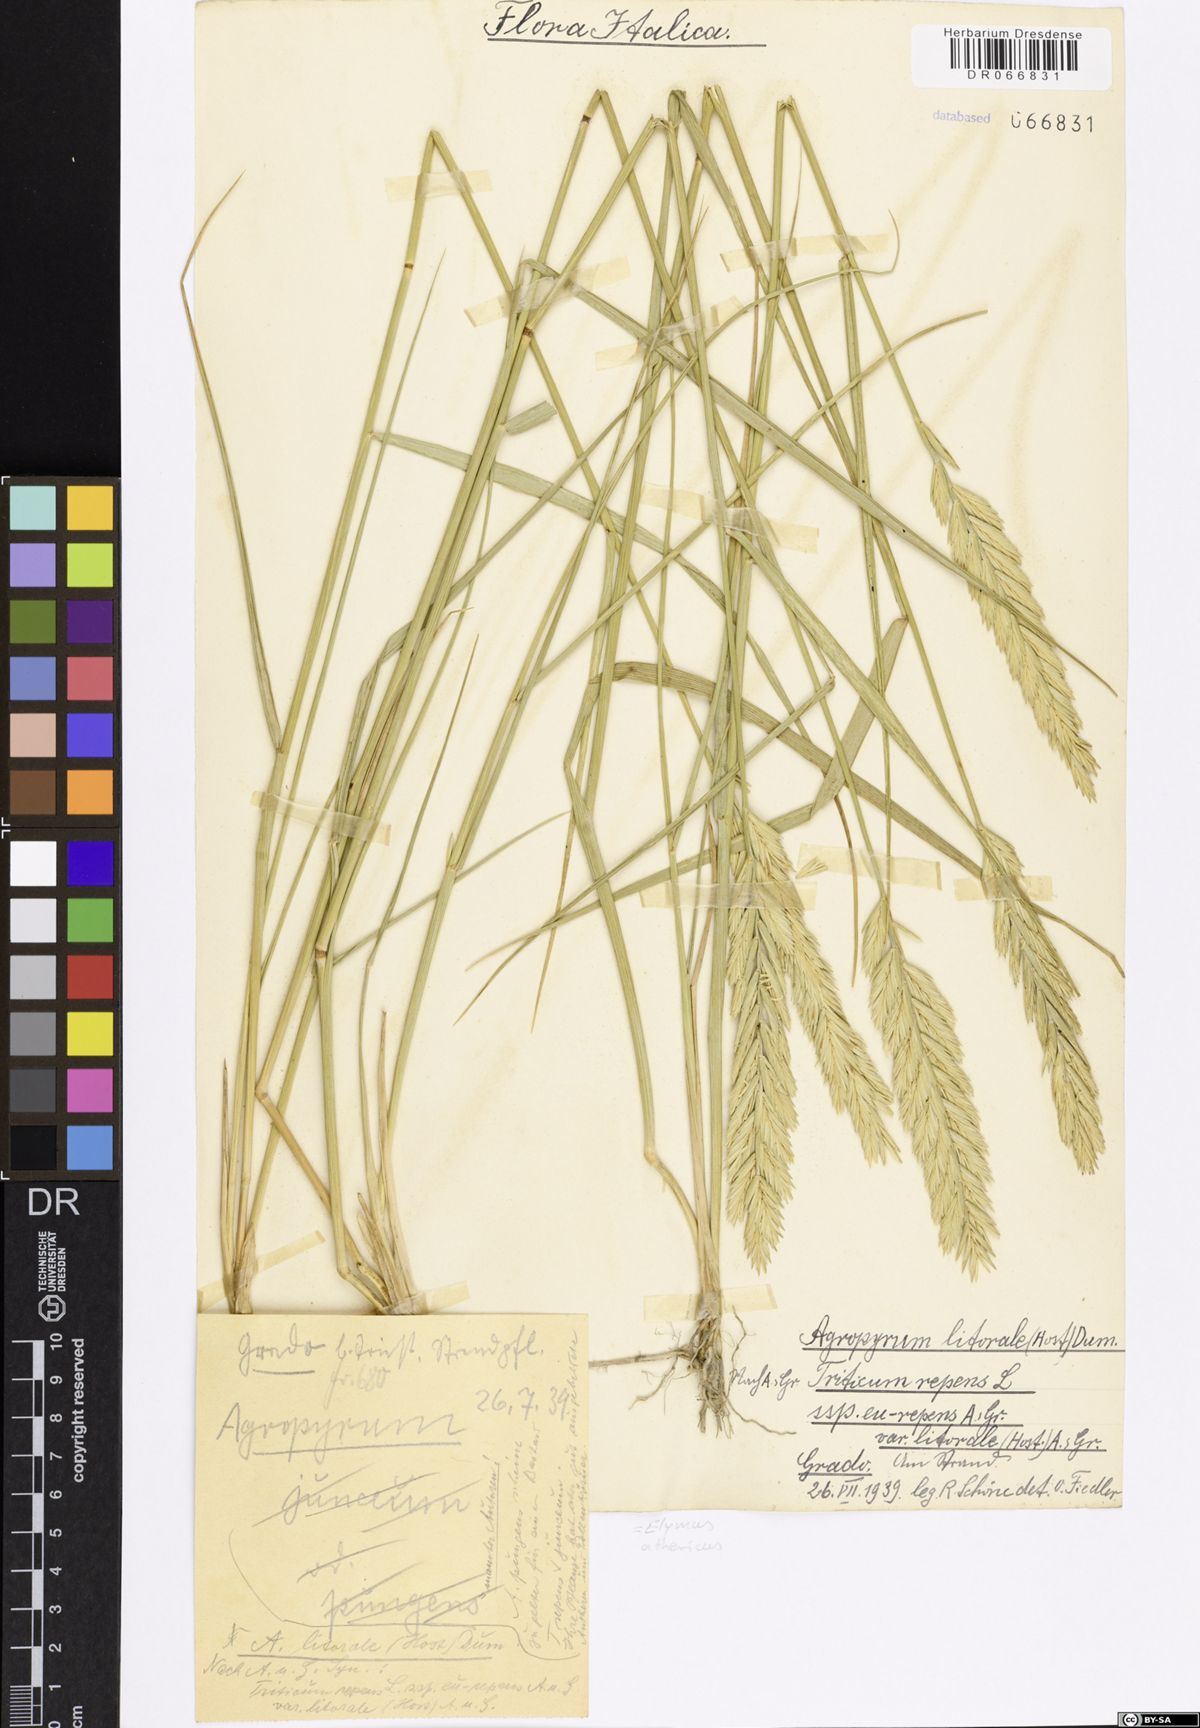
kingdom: Plantae
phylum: Tracheophyta
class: Liliopsida
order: Poales
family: Poaceae
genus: Elymus
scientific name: Elymus athericus
